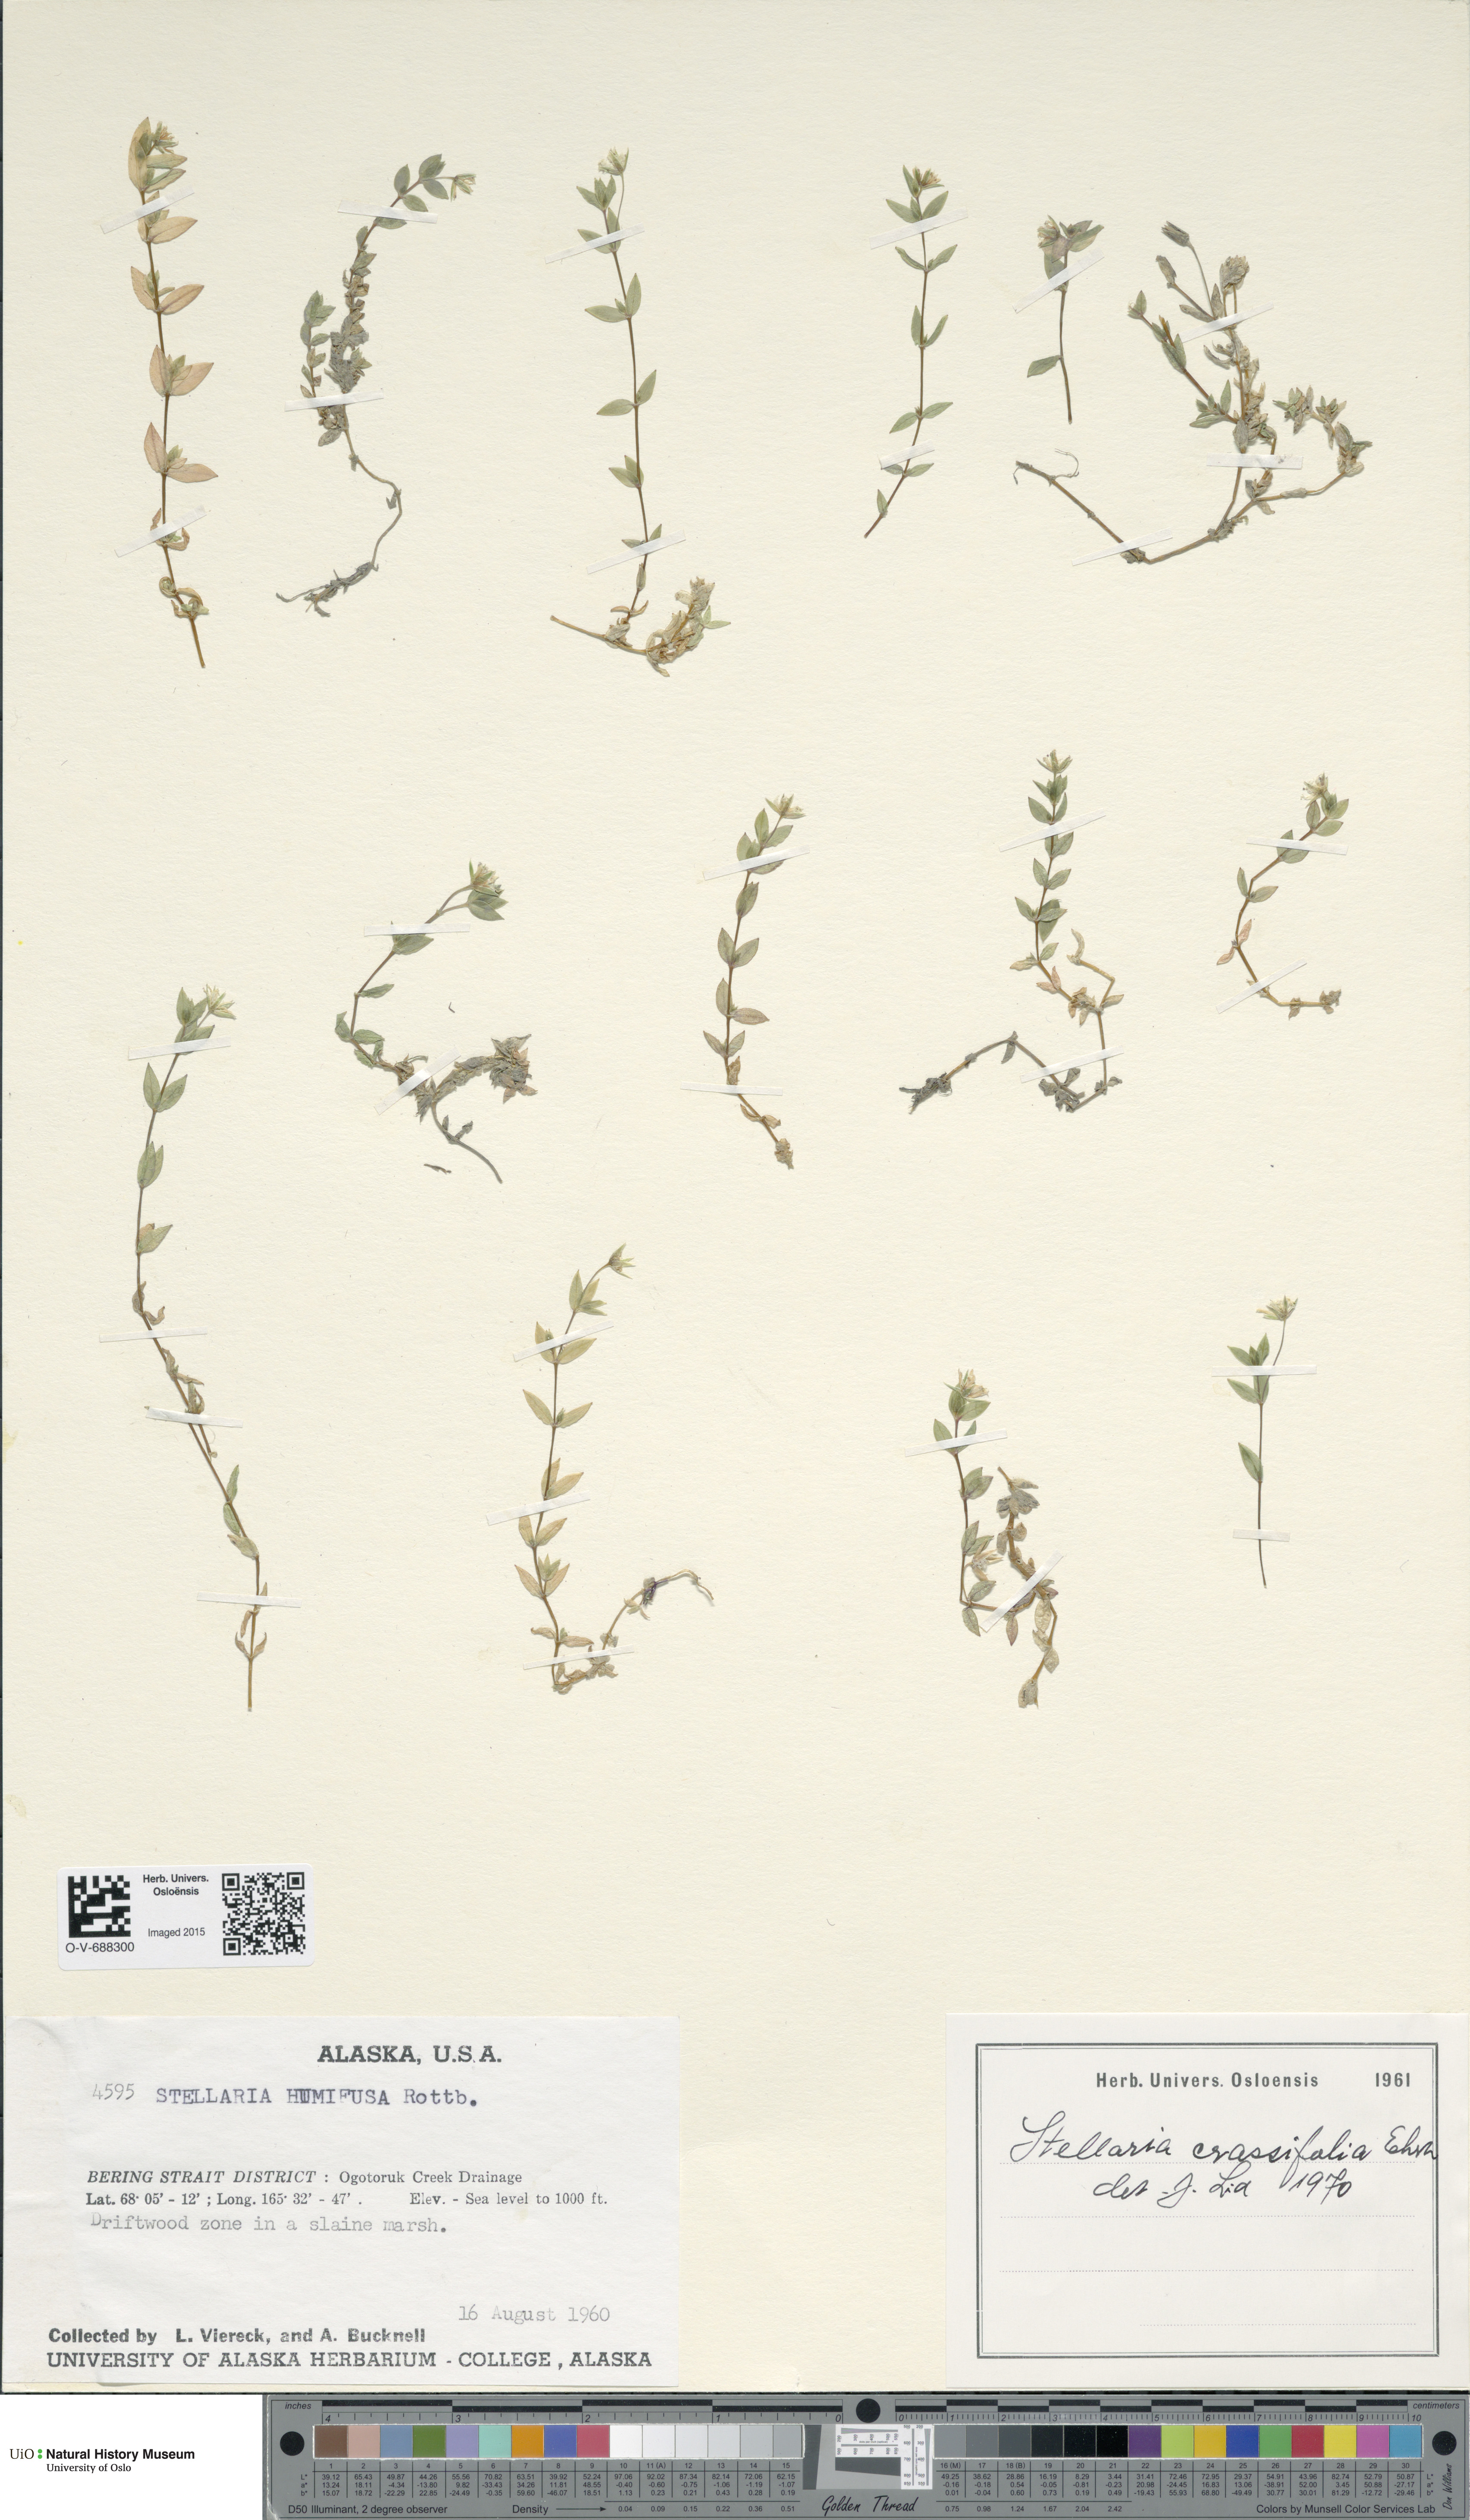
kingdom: Plantae
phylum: Tracheophyta
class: Magnoliopsida
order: Caryophyllales
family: Caryophyllaceae
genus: Stellaria
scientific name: Stellaria crassifolia
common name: Fleshy starwort
